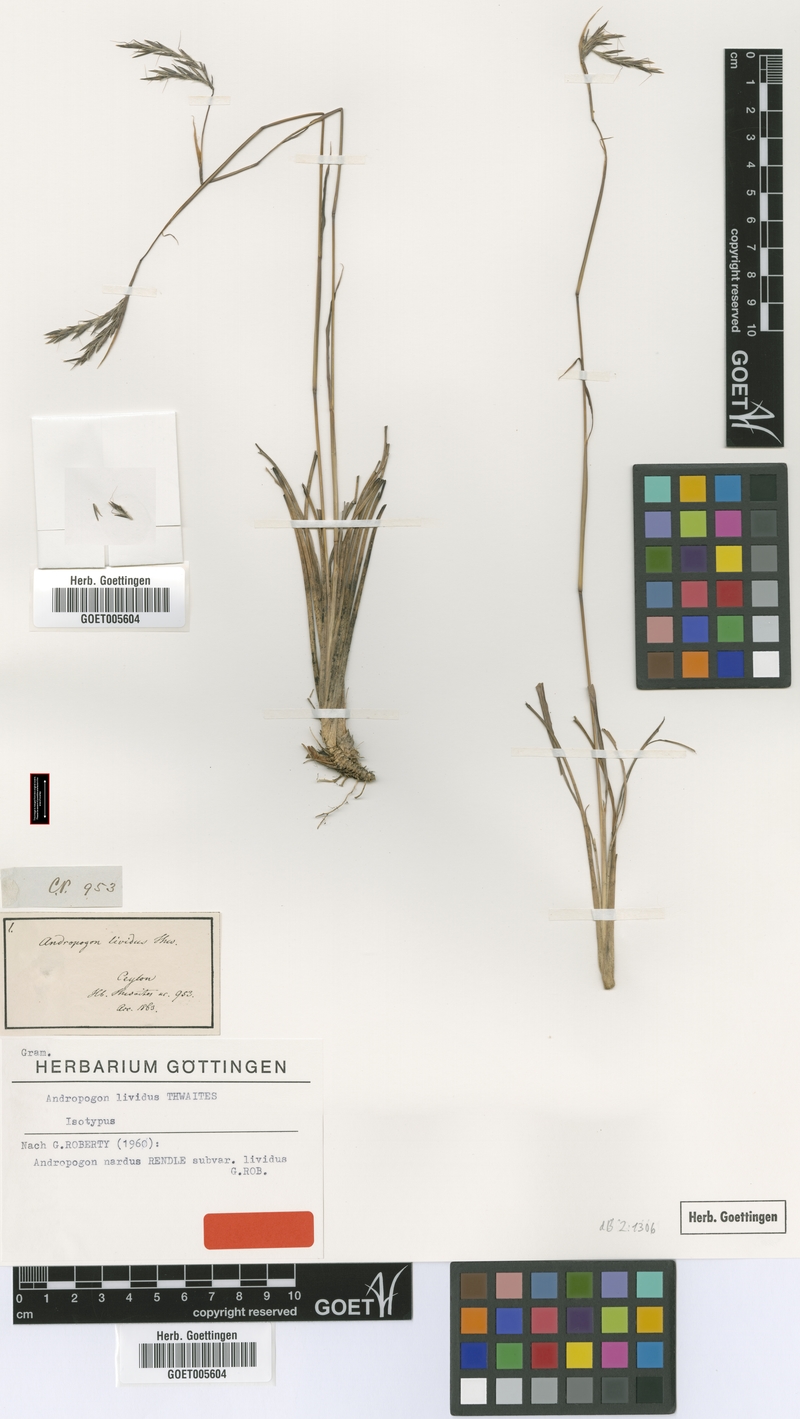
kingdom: Plantae
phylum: Tracheophyta
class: Liliopsida
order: Poales
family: Poaceae
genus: Andropogon
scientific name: Andropogon lividus
